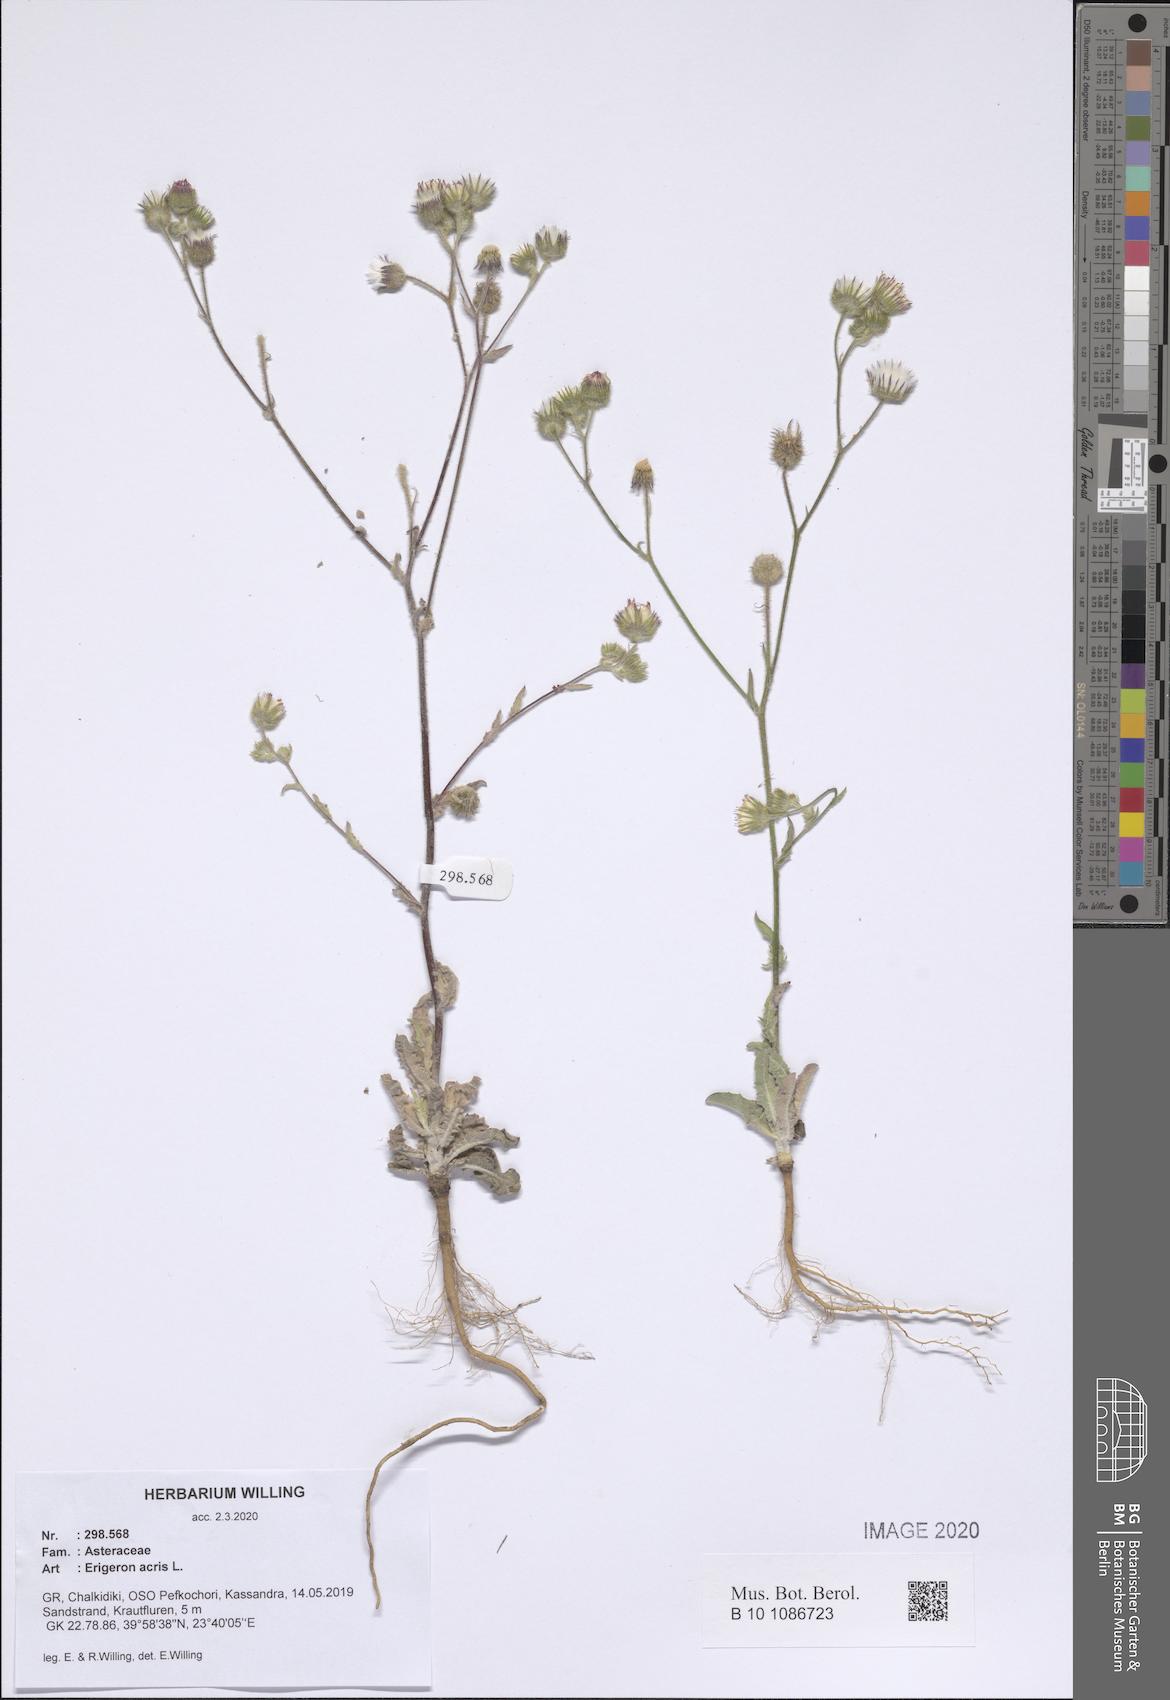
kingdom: Plantae
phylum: Tracheophyta
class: Magnoliopsida
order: Asterales
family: Asteraceae
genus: Erigeron
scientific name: Erigeron acris
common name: Blue fleabane
